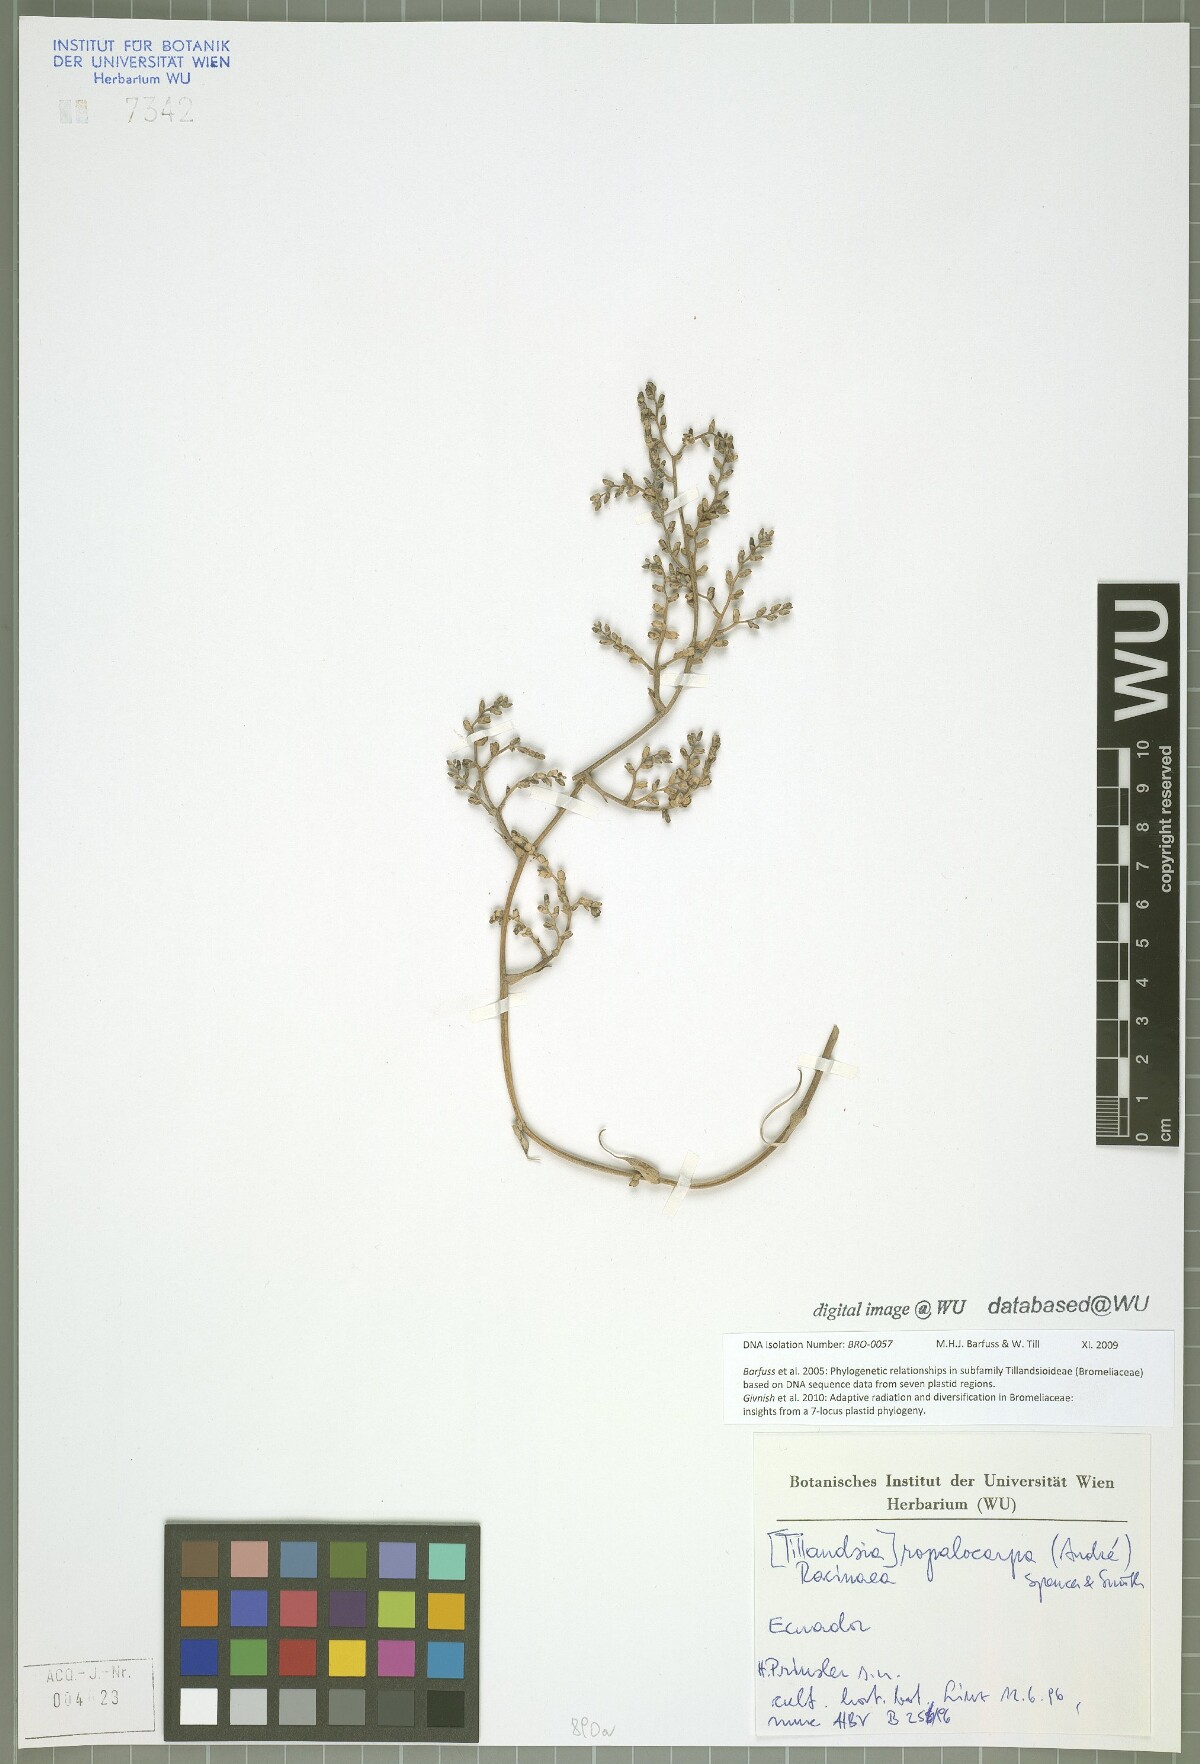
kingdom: Plantae
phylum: Tracheophyta
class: Liliopsida
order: Poales
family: Bromeliaceae
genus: Racinaea
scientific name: Racinaea ropalocarpa
